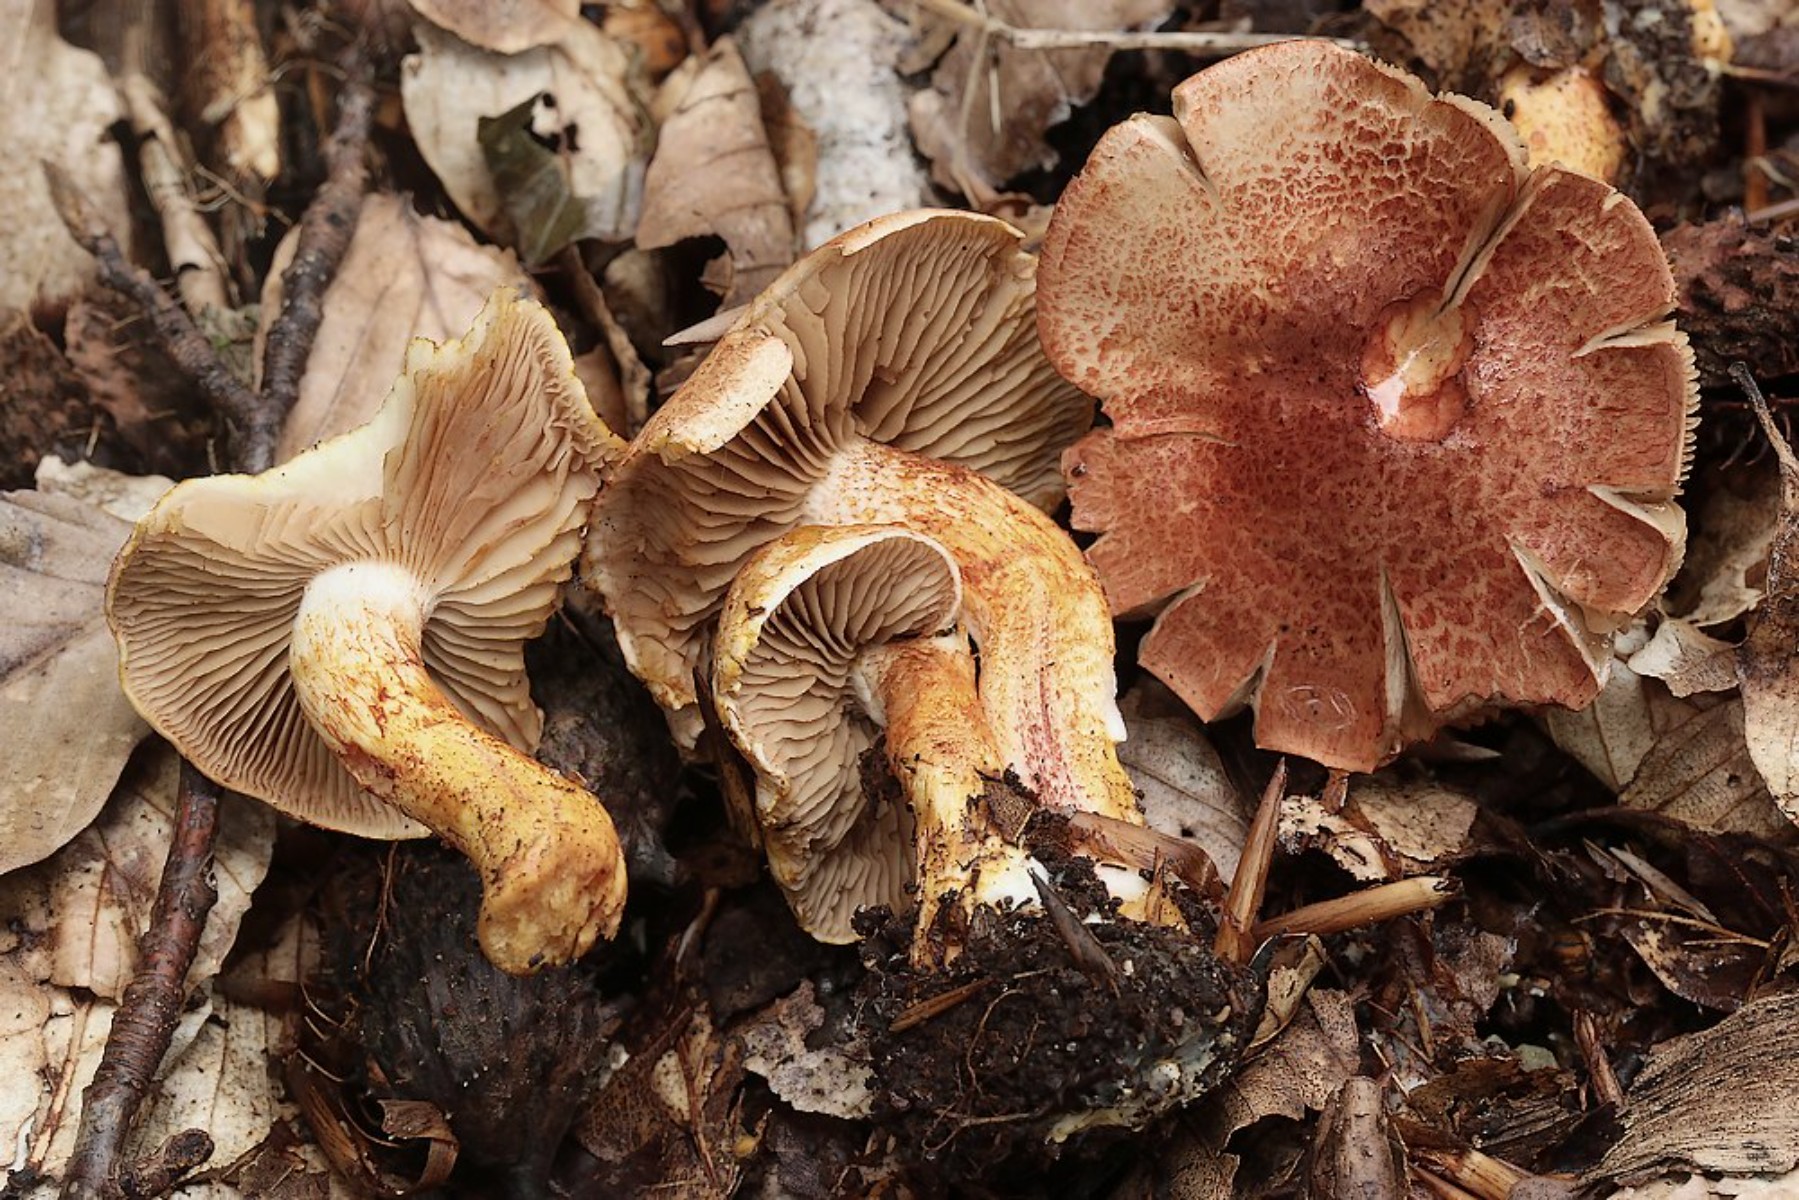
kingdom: Fungi
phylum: Basidiomycota
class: Agaricomycetes
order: Agaricales
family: Cortinariaceae
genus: Cortinarius
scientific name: Cortinarius bolaris
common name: cinnoberskællet slørhat
